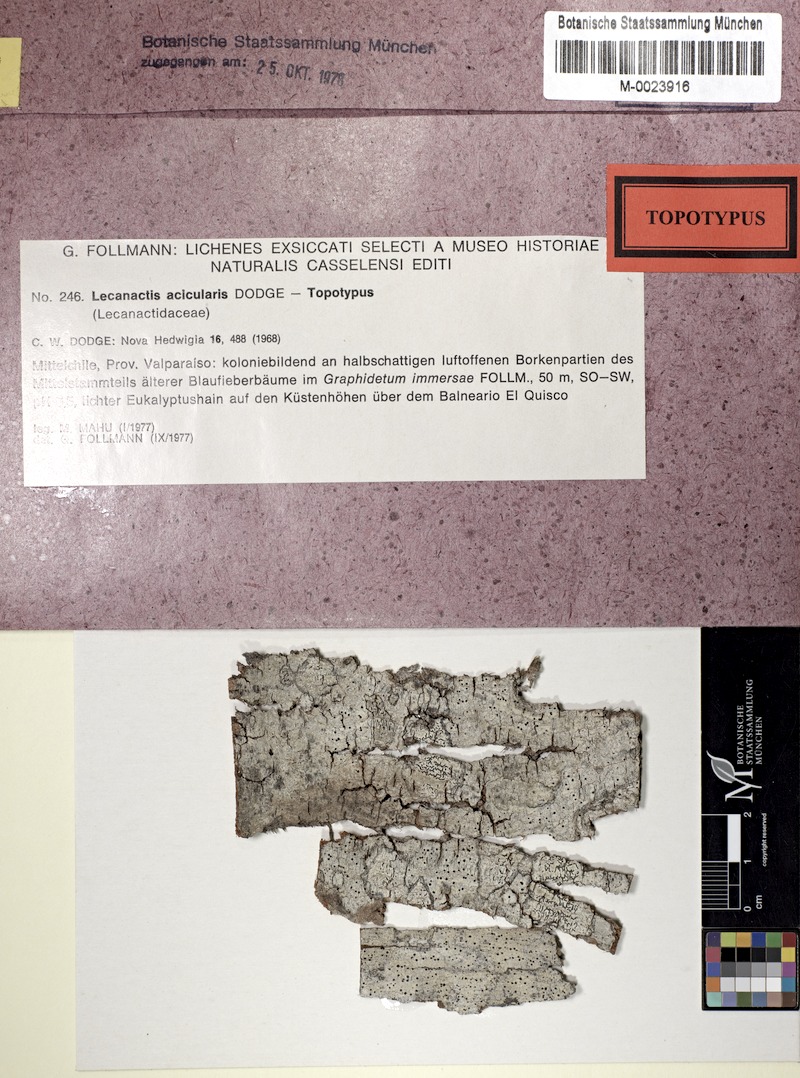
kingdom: Fungi
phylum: Ascomycota
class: Arthoniomycetes
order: Arthoniales
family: Roccellaceae
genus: Bactrospora
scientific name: Bactrospora acicularis
